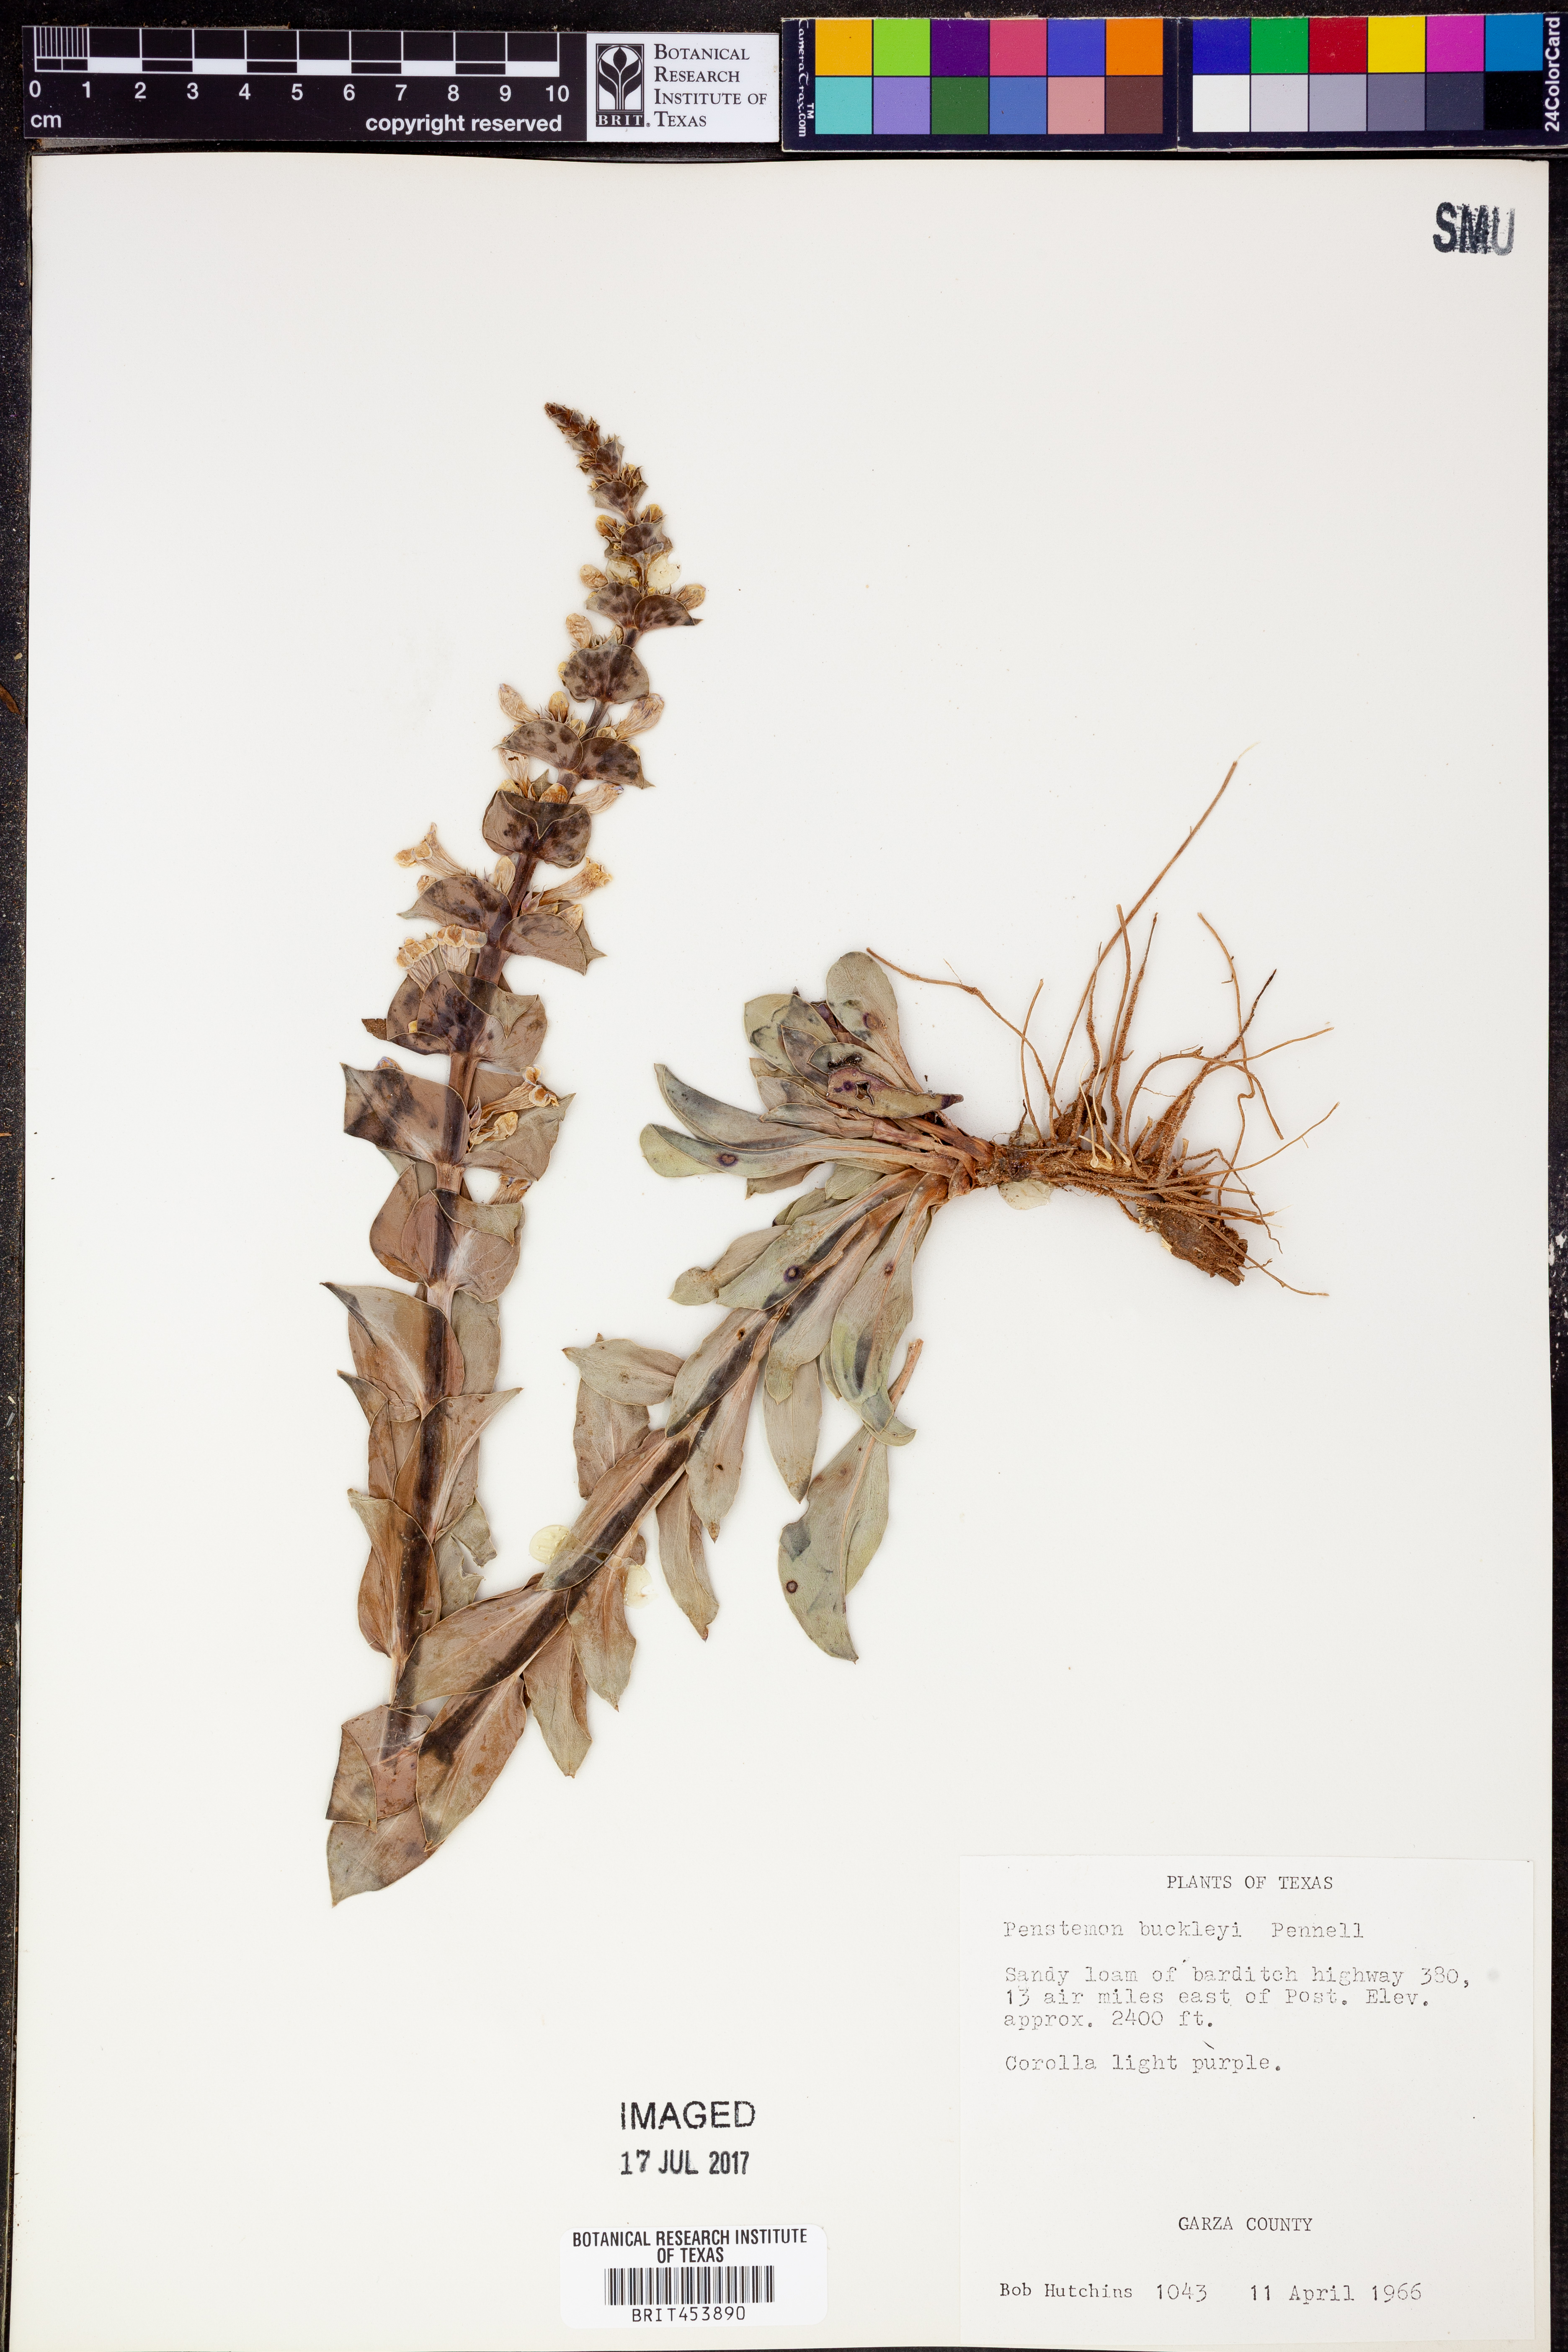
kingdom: Plantae
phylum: Tracheophyta
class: Magnoliopsida
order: Lamiales
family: Plantaginaceae
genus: Penstemon
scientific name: Penstemon buckleyi
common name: Buckley's penstemon
